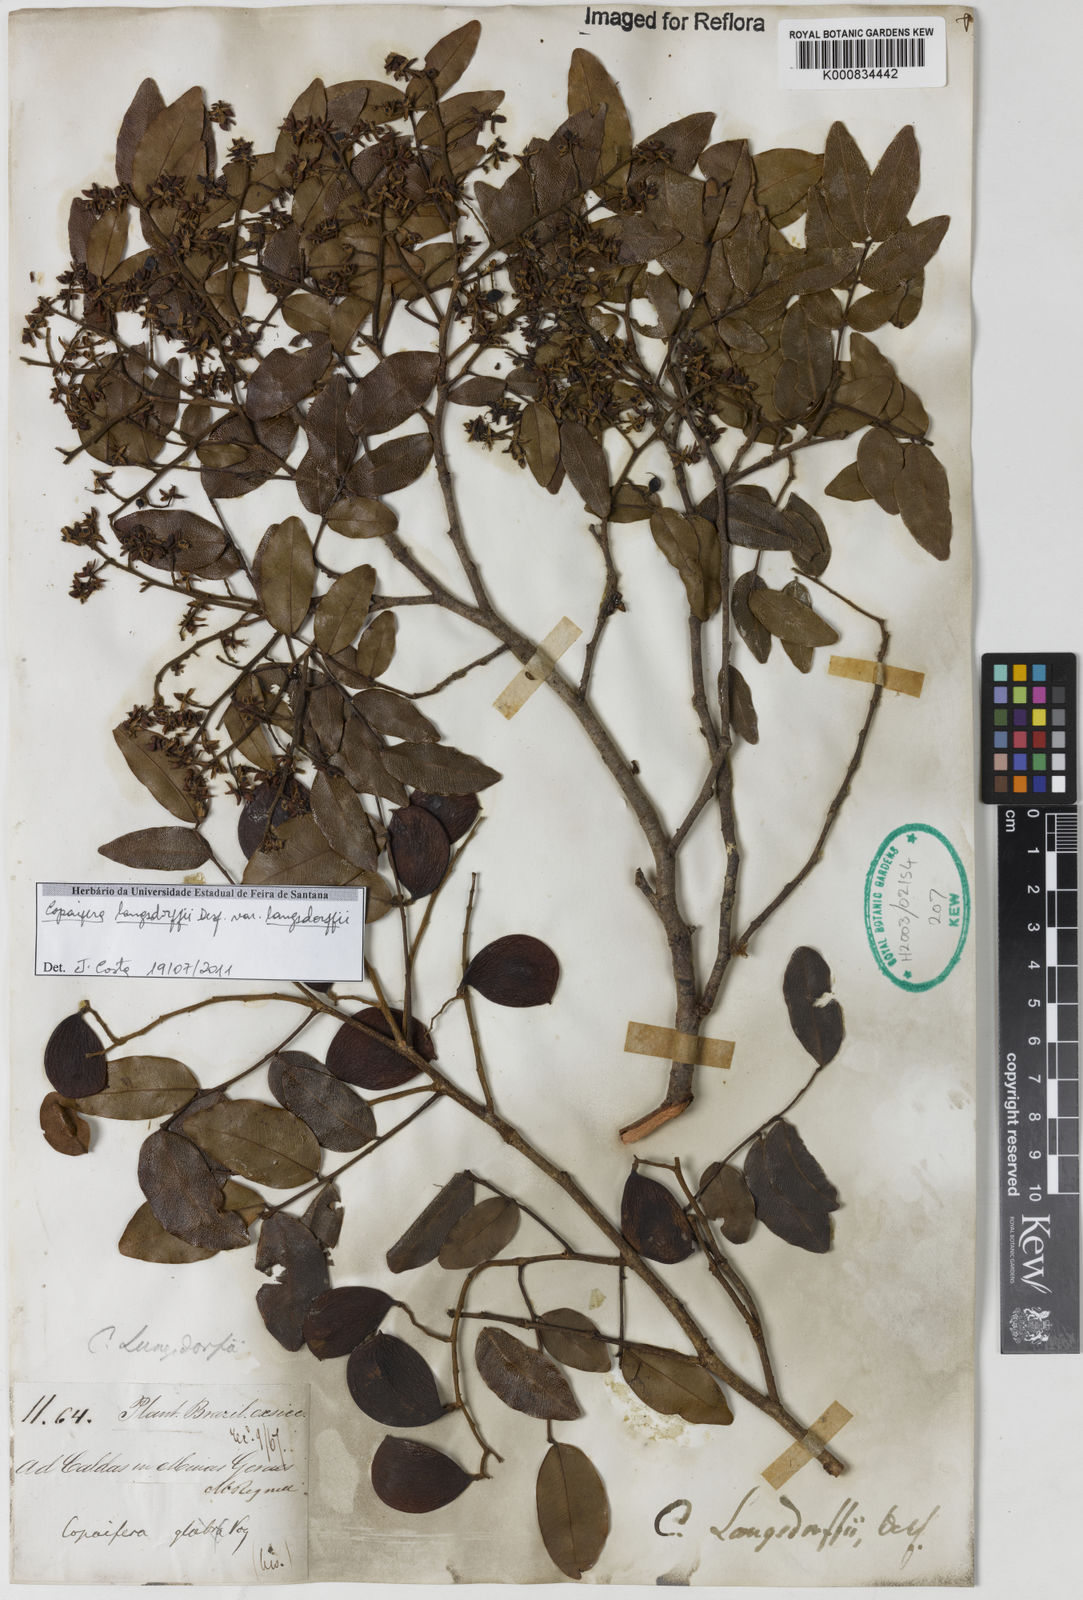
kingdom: Plantae
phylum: Tracheophyta
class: Magnoliopsida
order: Fabales
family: Fabaceae
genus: Copaifera
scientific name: Copaifera langsdorffii
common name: Brazilian diesel tree
